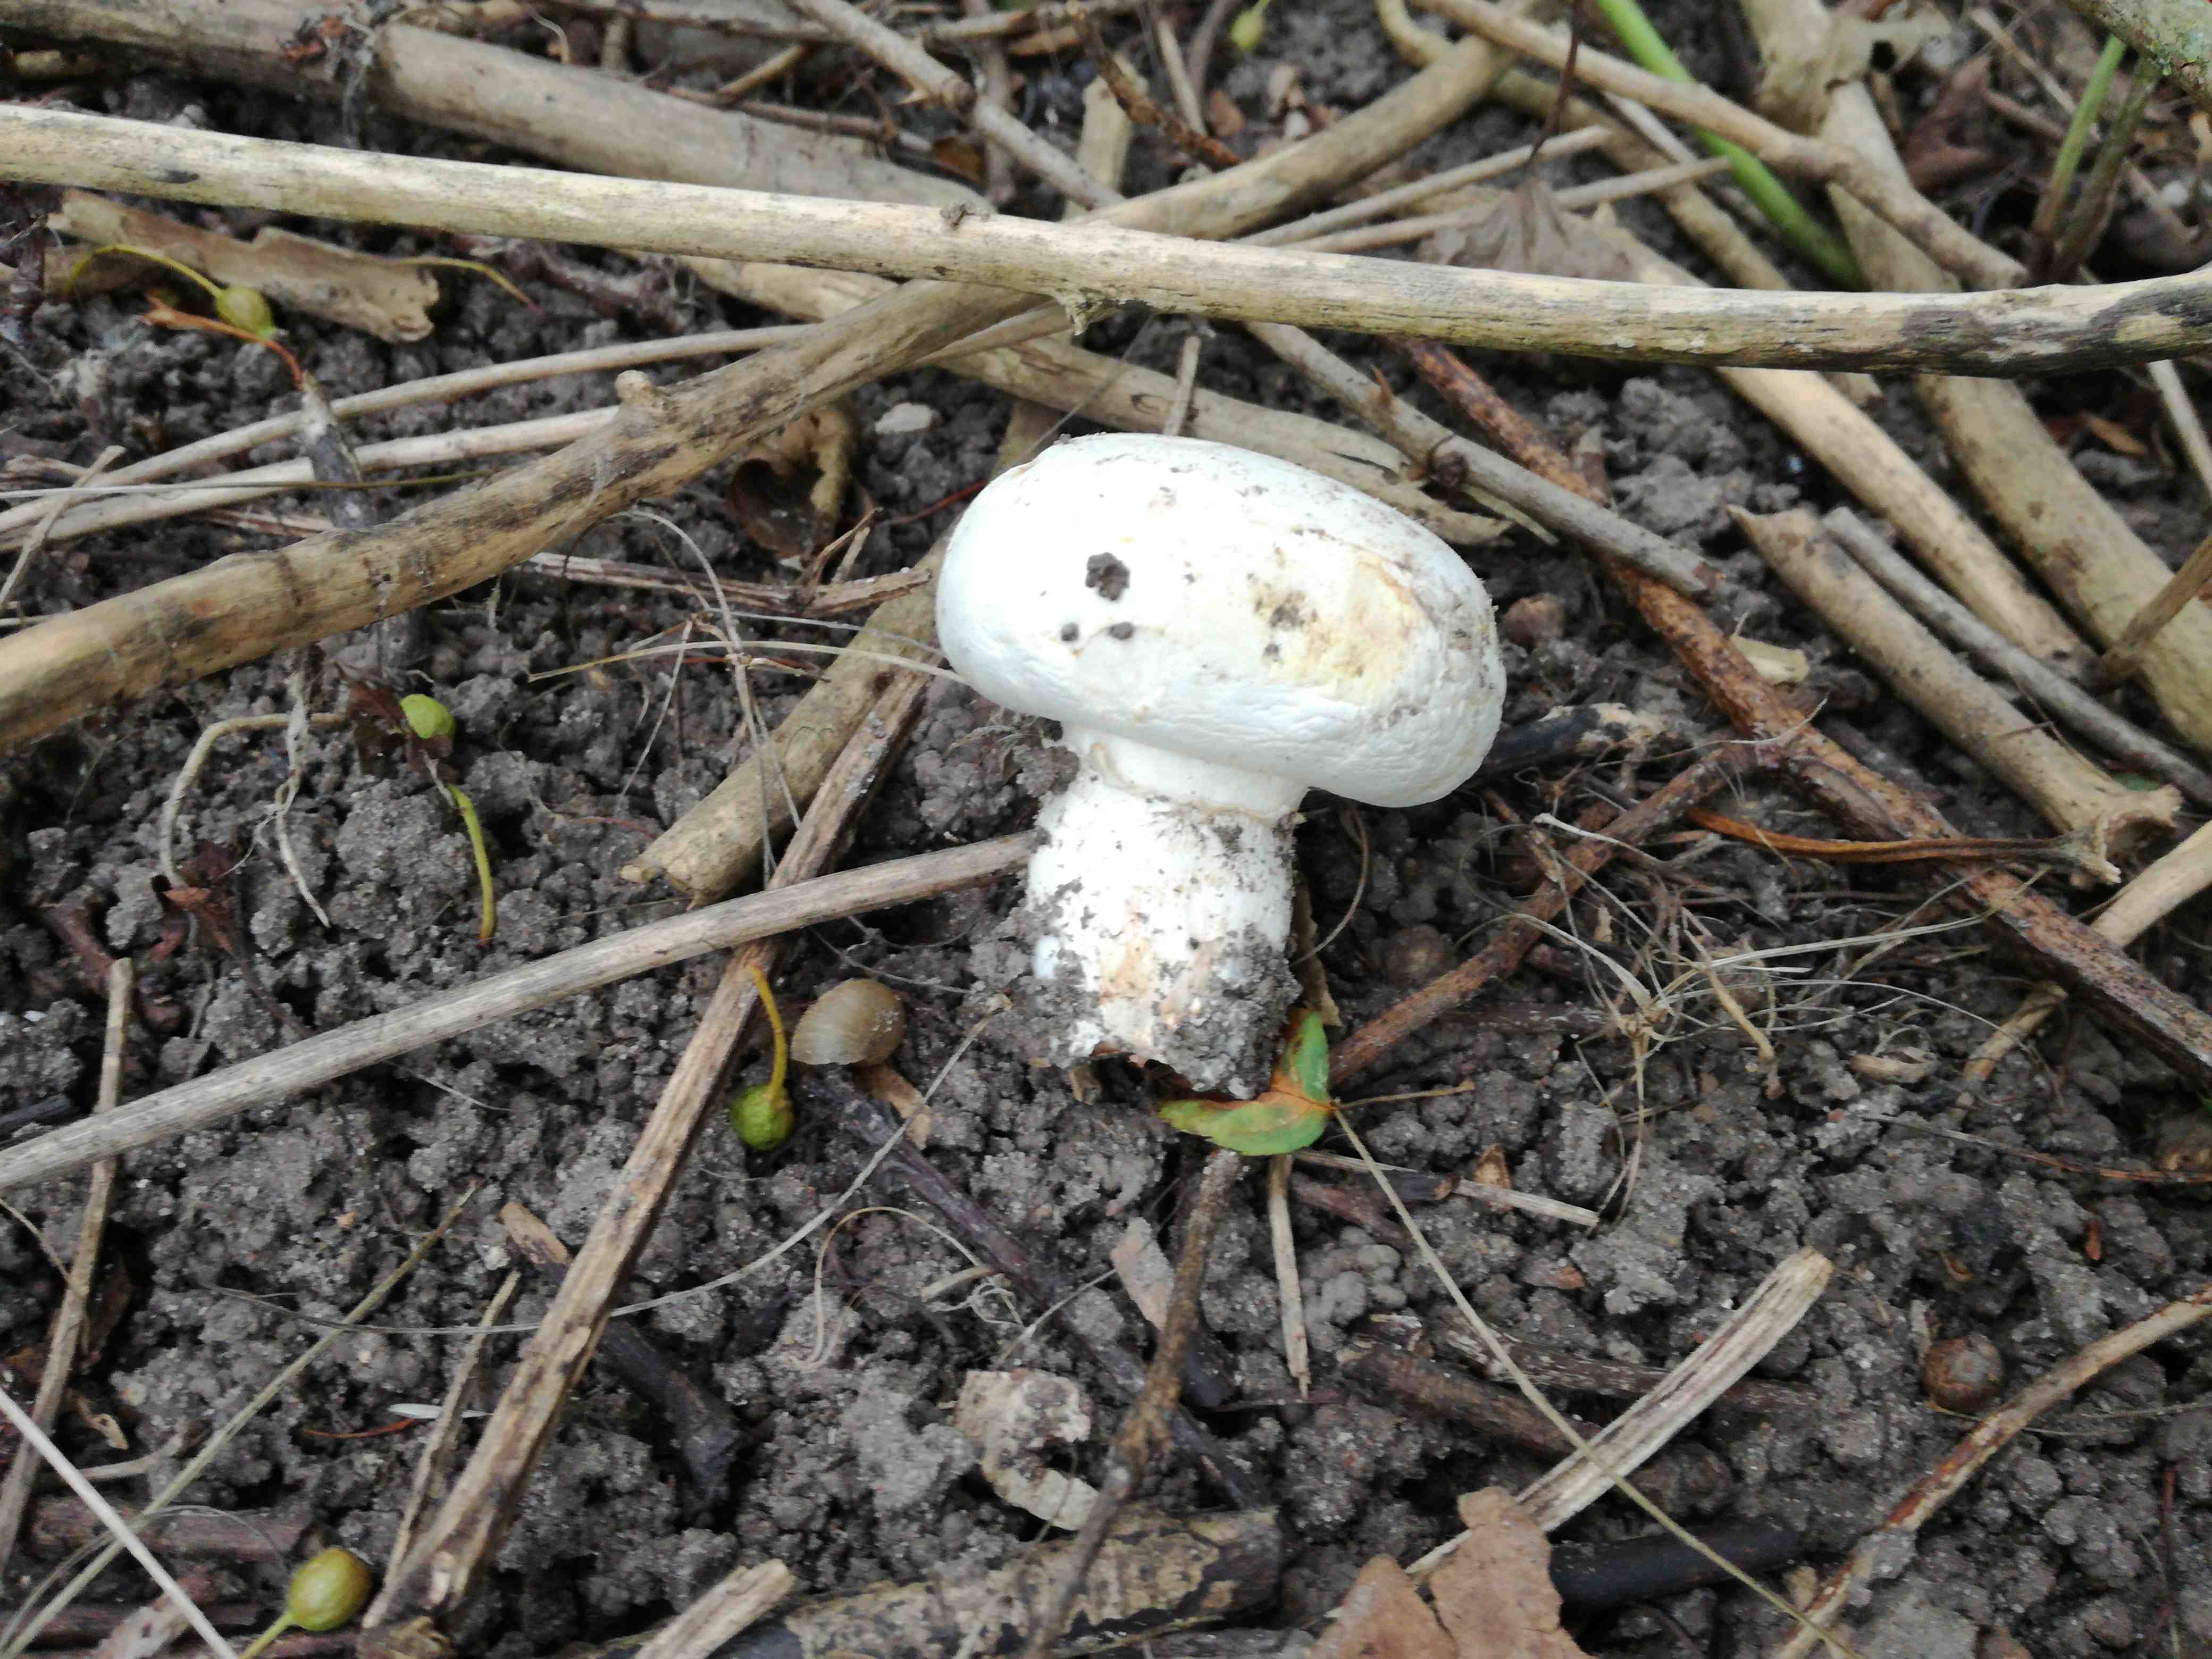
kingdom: Fungi
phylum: Basidiomycota
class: Agaricomycetes
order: Agaricales
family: Agaricaceae
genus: Agaricus
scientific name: Agaricus
